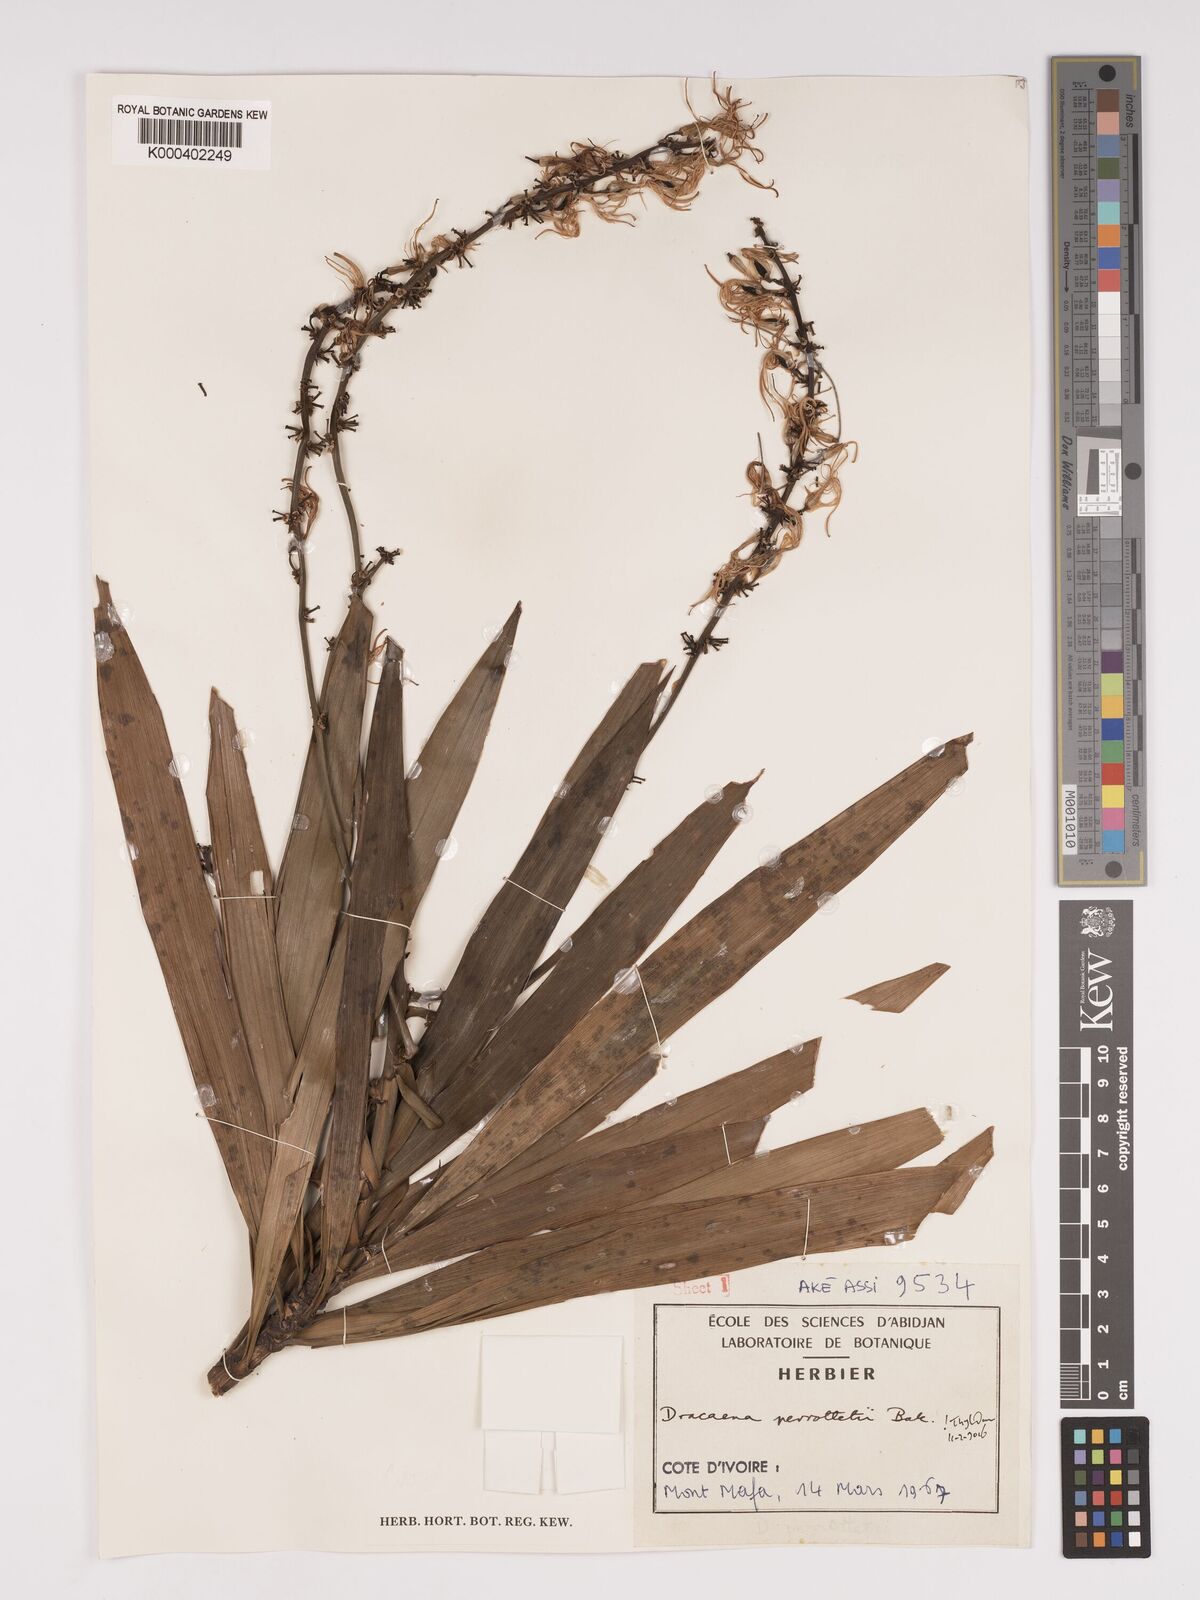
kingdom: Plantae
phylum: Tracheophyta
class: Liliopsida
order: Asparagales
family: Asparagaceae
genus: Dracaena
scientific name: Dracaena perrottetii
